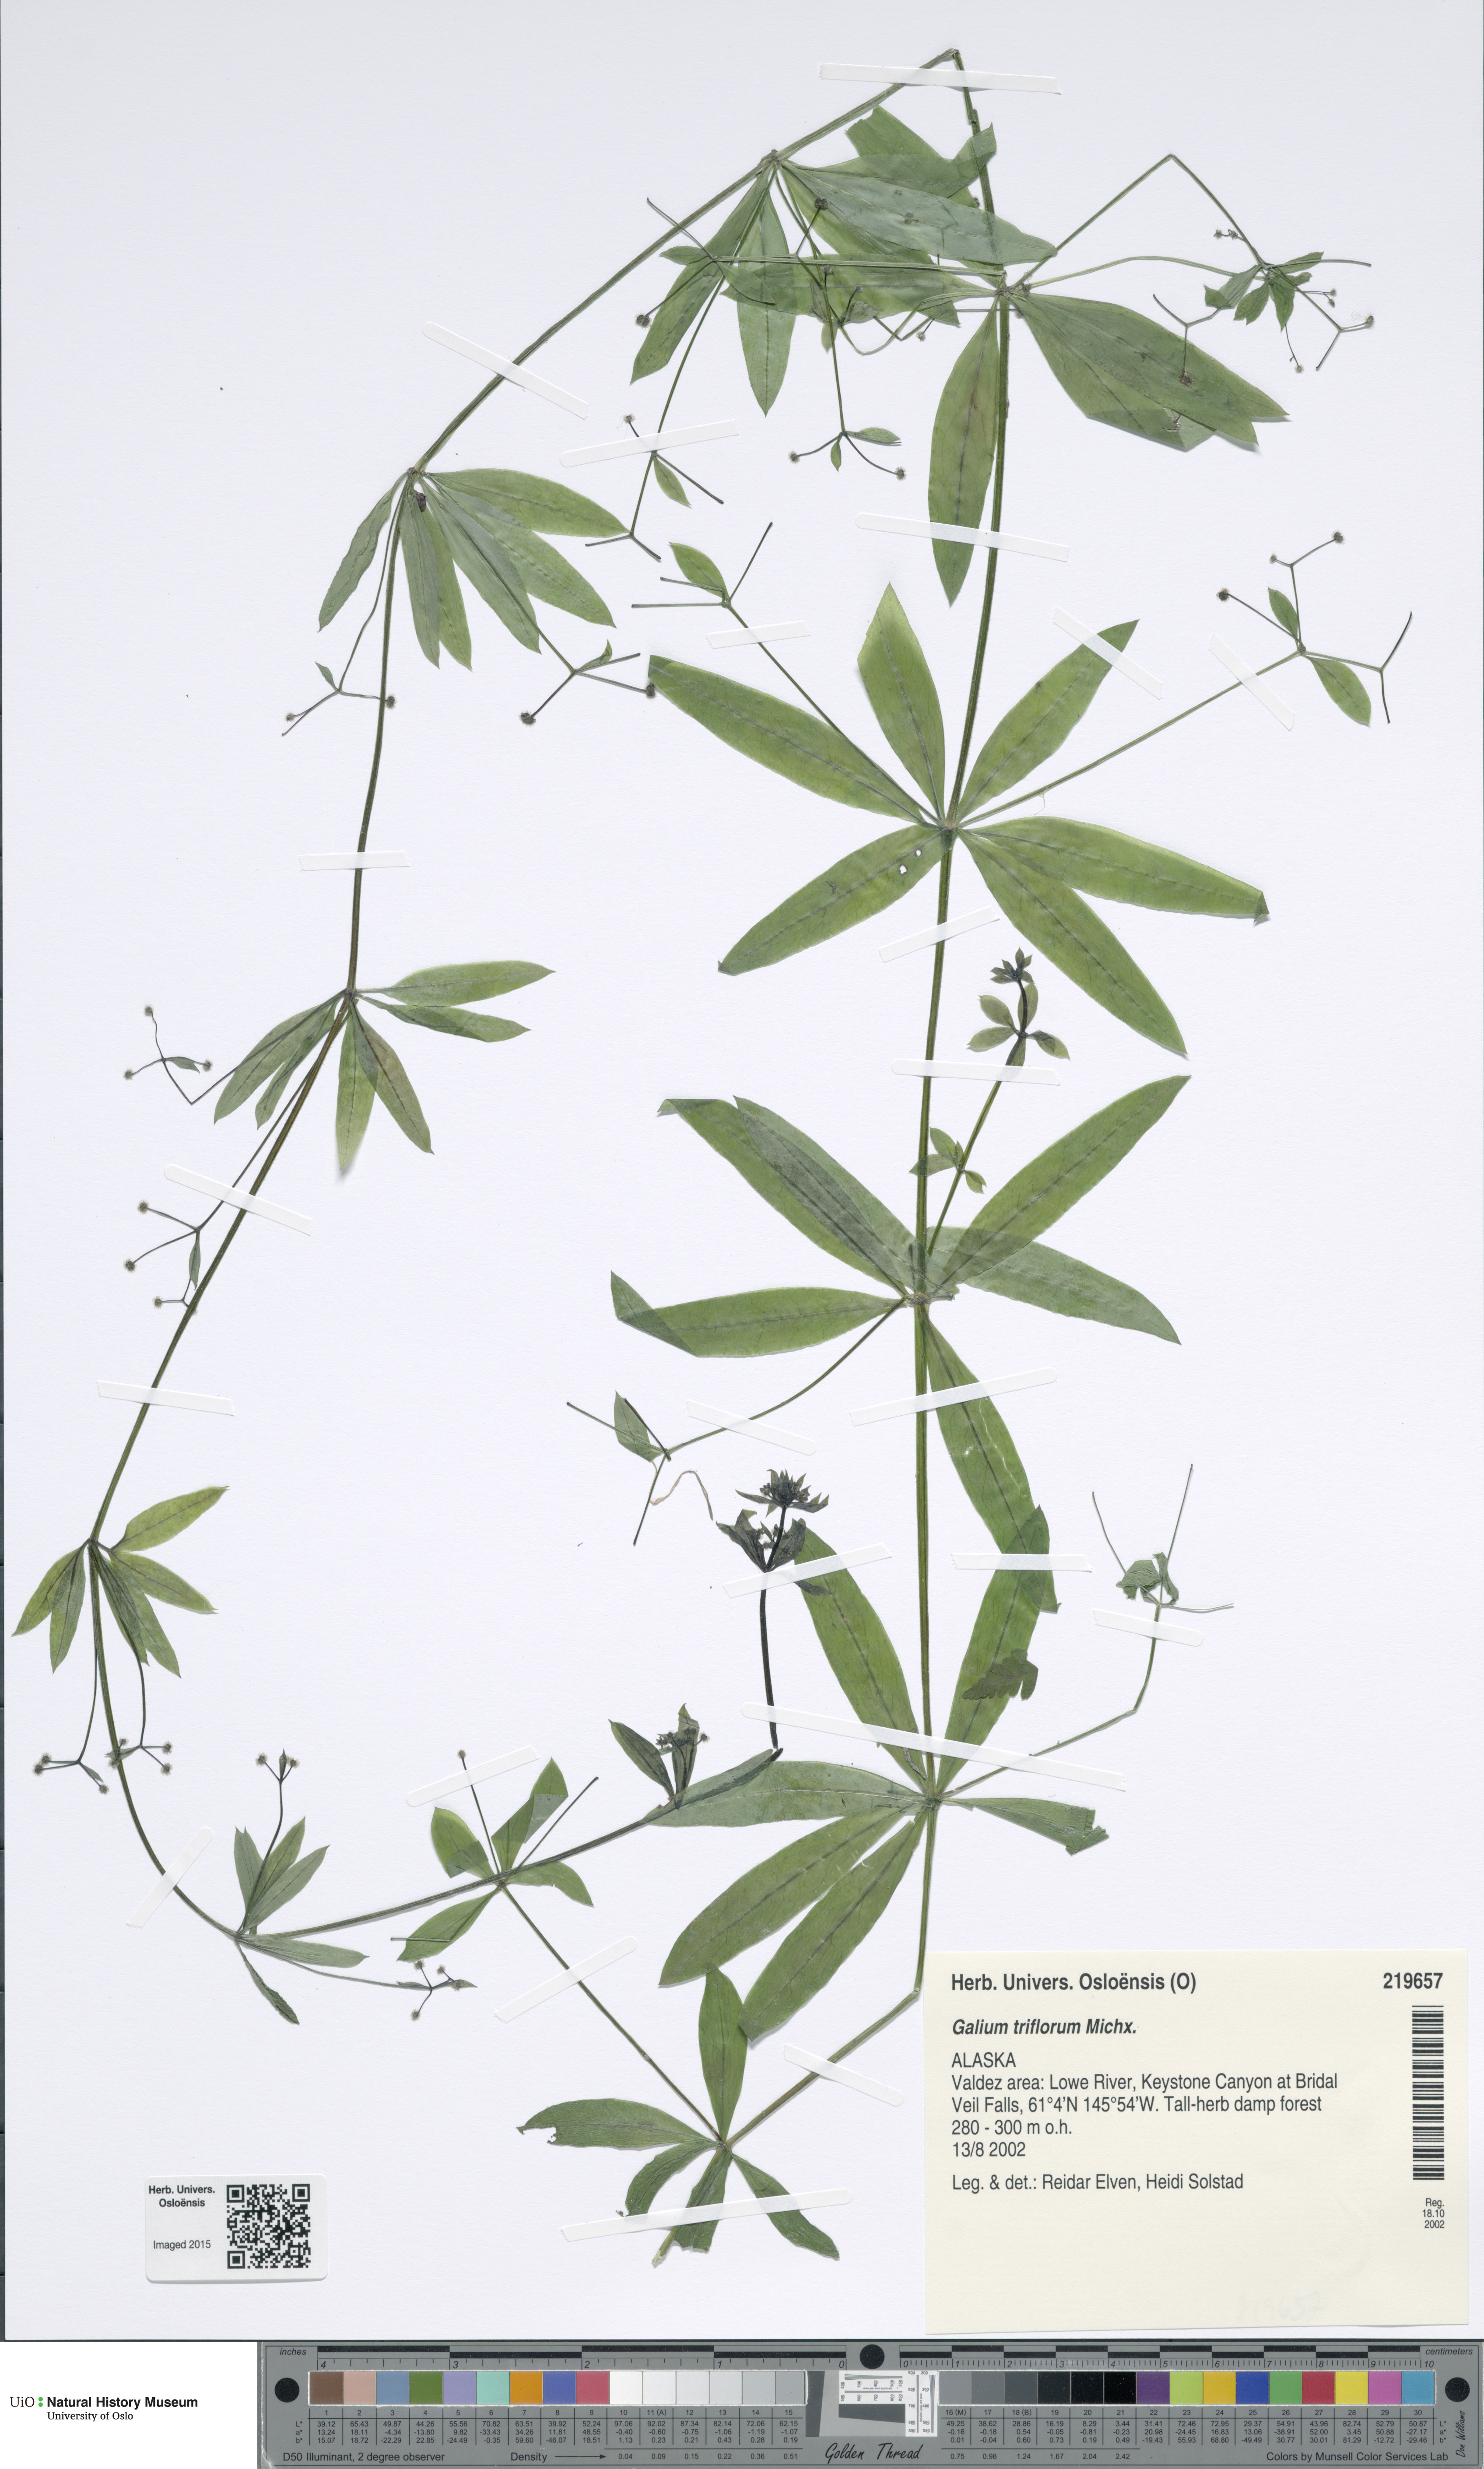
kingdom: Plantae
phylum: Tracheophyta
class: Magnoliopsida
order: Gentianales
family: Rubiaceae
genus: Galium
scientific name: Galium triflorum
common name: Fragrant bedstraw
